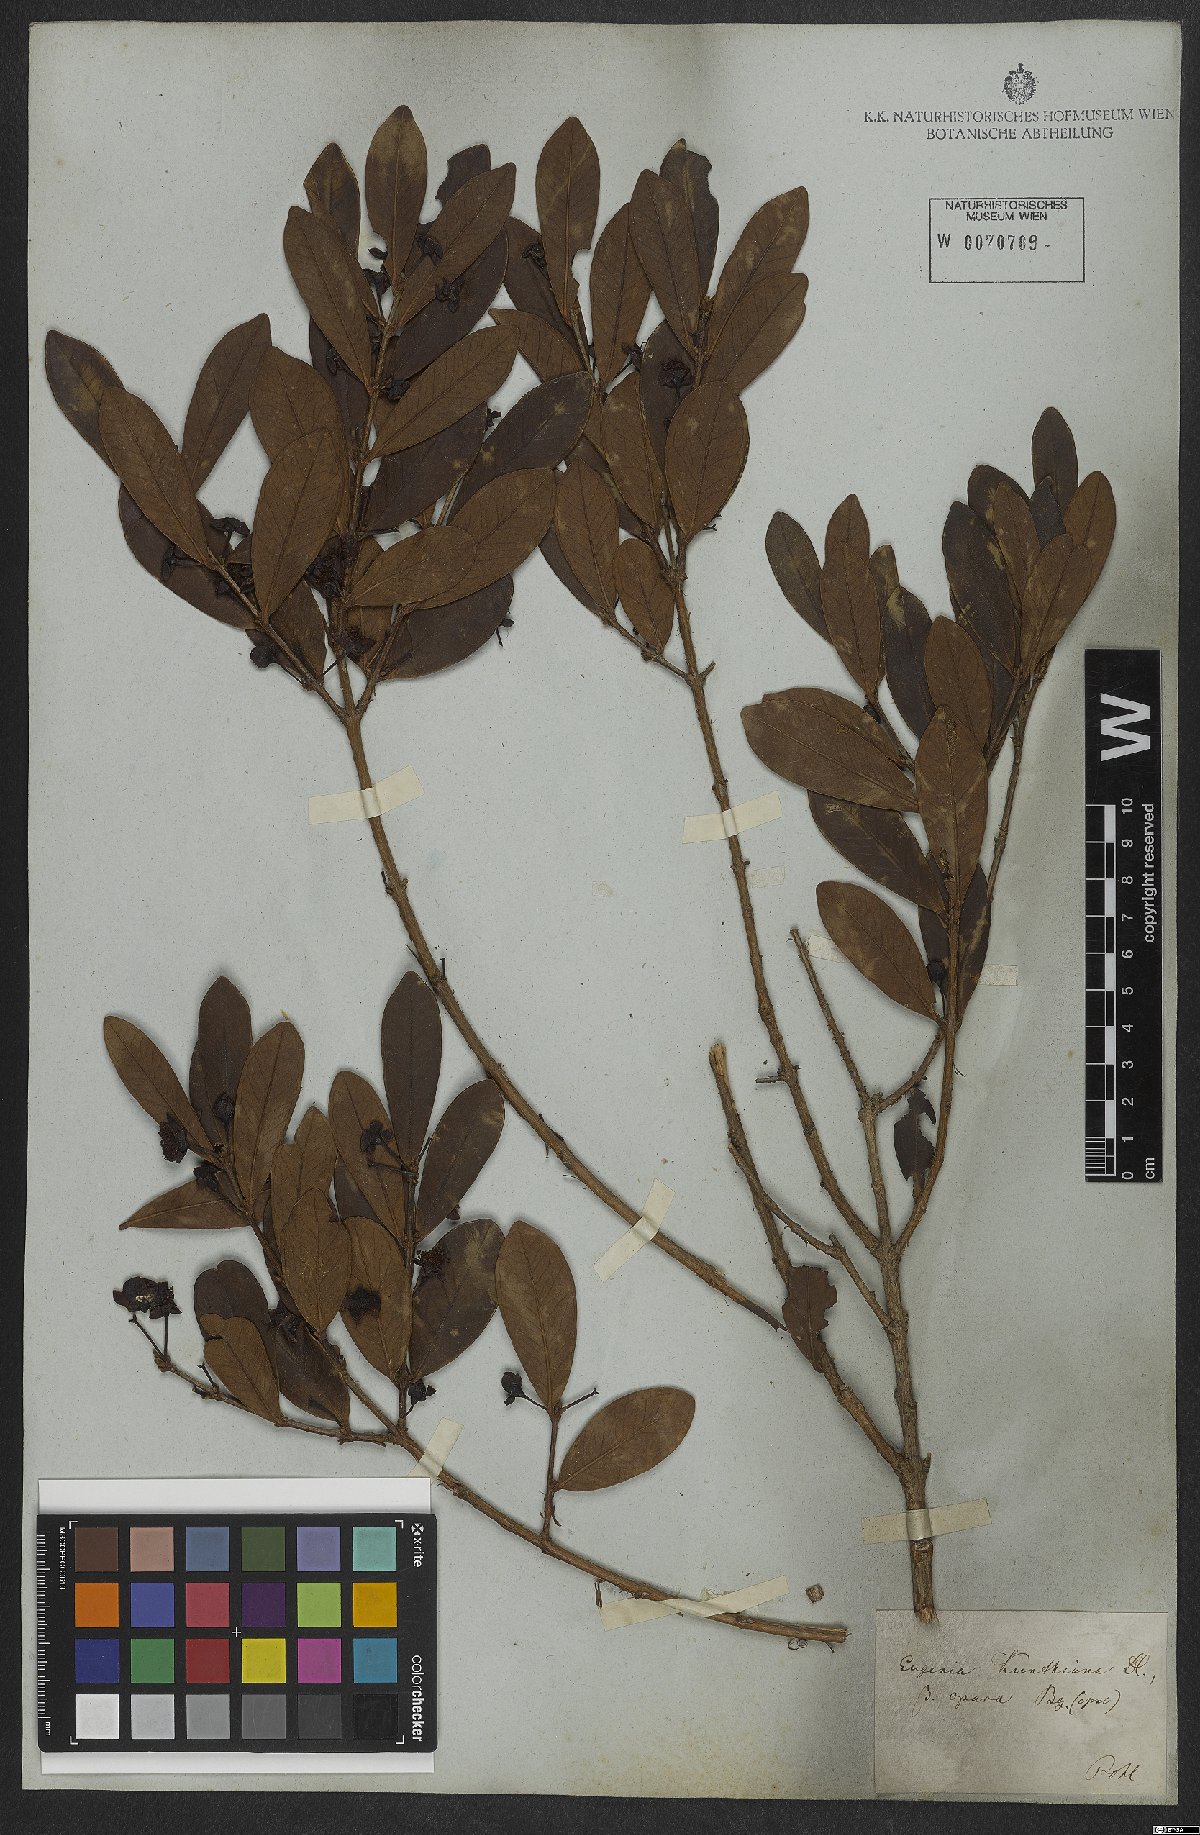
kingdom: Plantae
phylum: Tracheophyta
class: Magnoliopsida
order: Myrtales
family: Myrtaceae
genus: Eugenia
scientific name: Eugenia punicifolia
